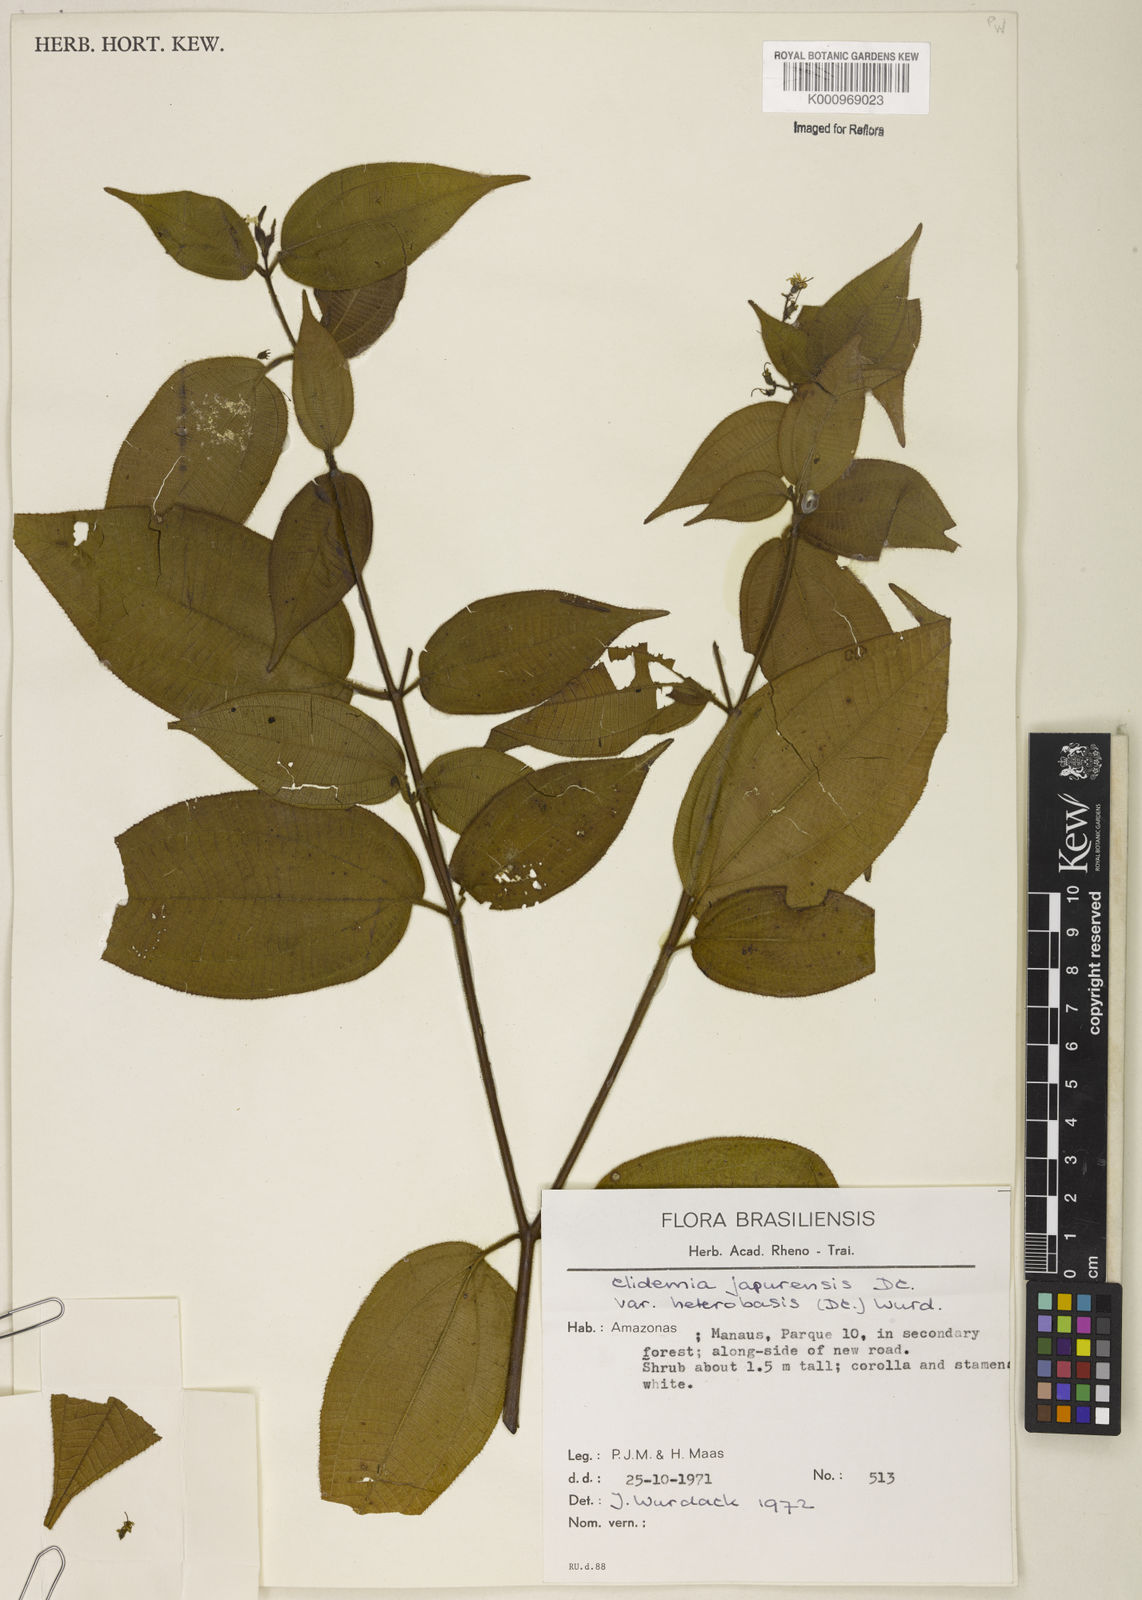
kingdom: Plantae
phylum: Tracheophyta
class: Magnoliopsida
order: Myrtales
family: Melastomataceae
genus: Miconia
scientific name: Miconia heteroclita
